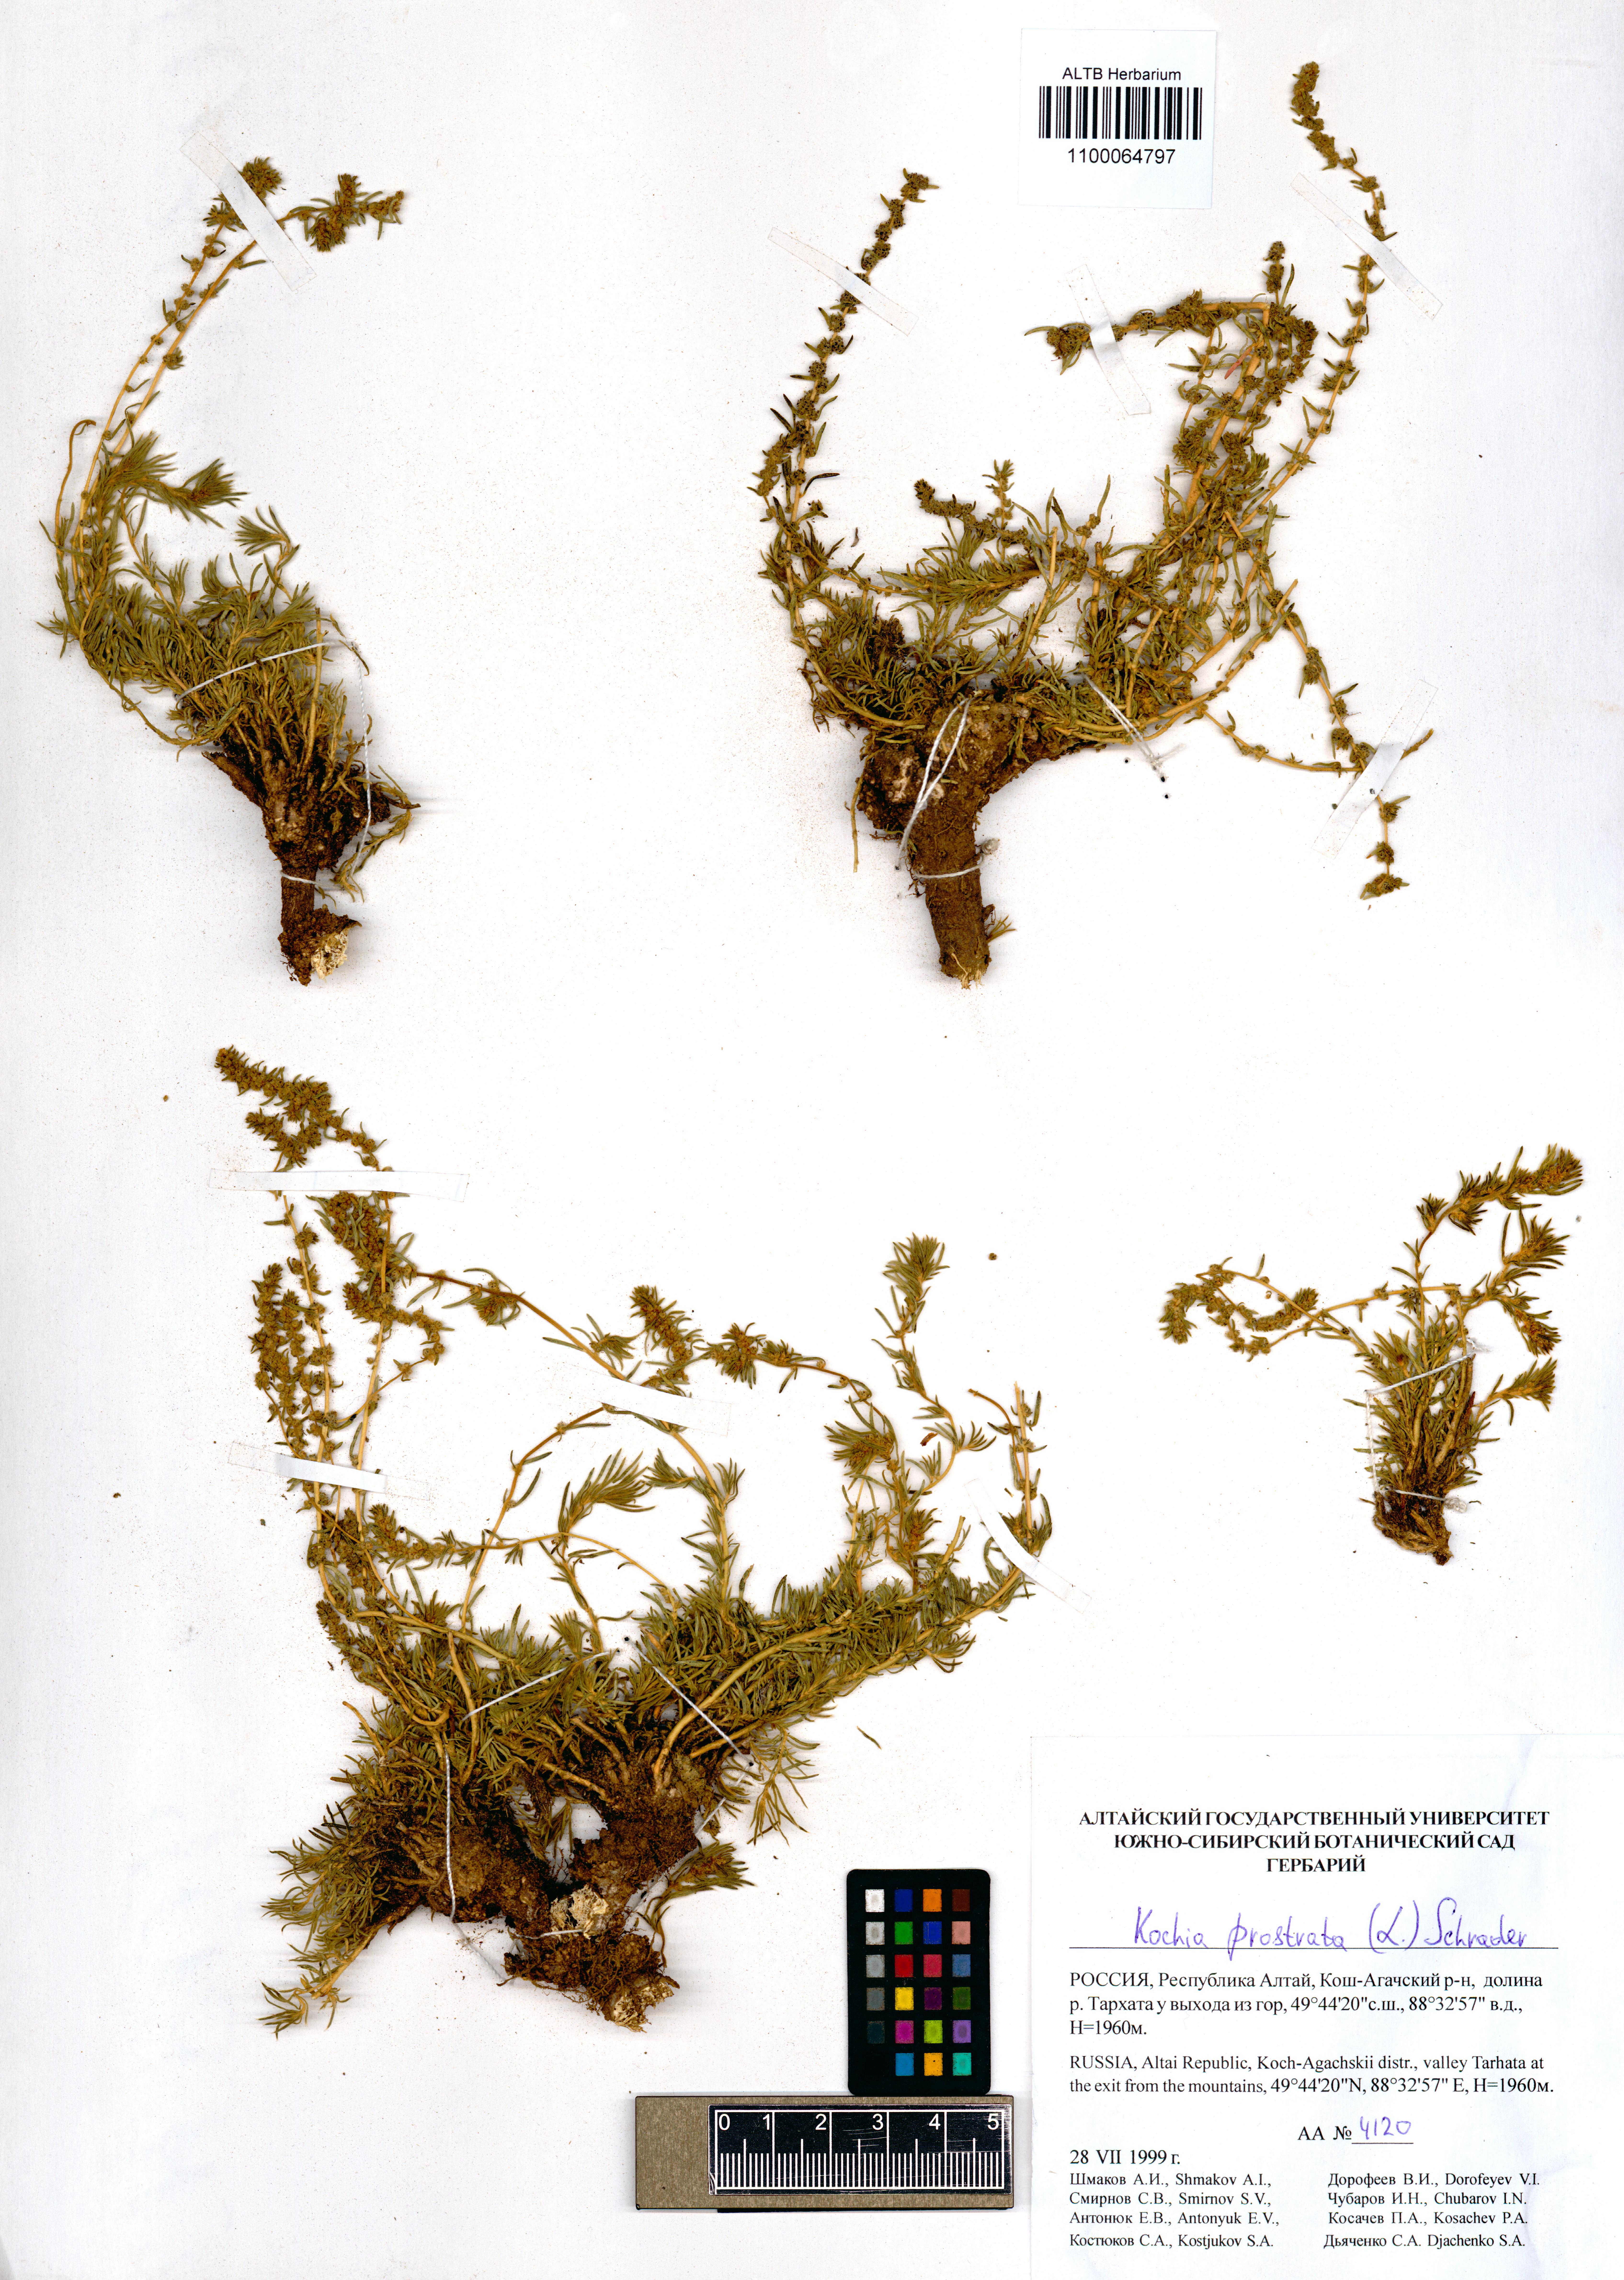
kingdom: Plantae
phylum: Tracheophyta
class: Magnoliopsida
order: Caryophyllales
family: Amaranthaceae
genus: Bassia
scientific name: Bassia prostrata
